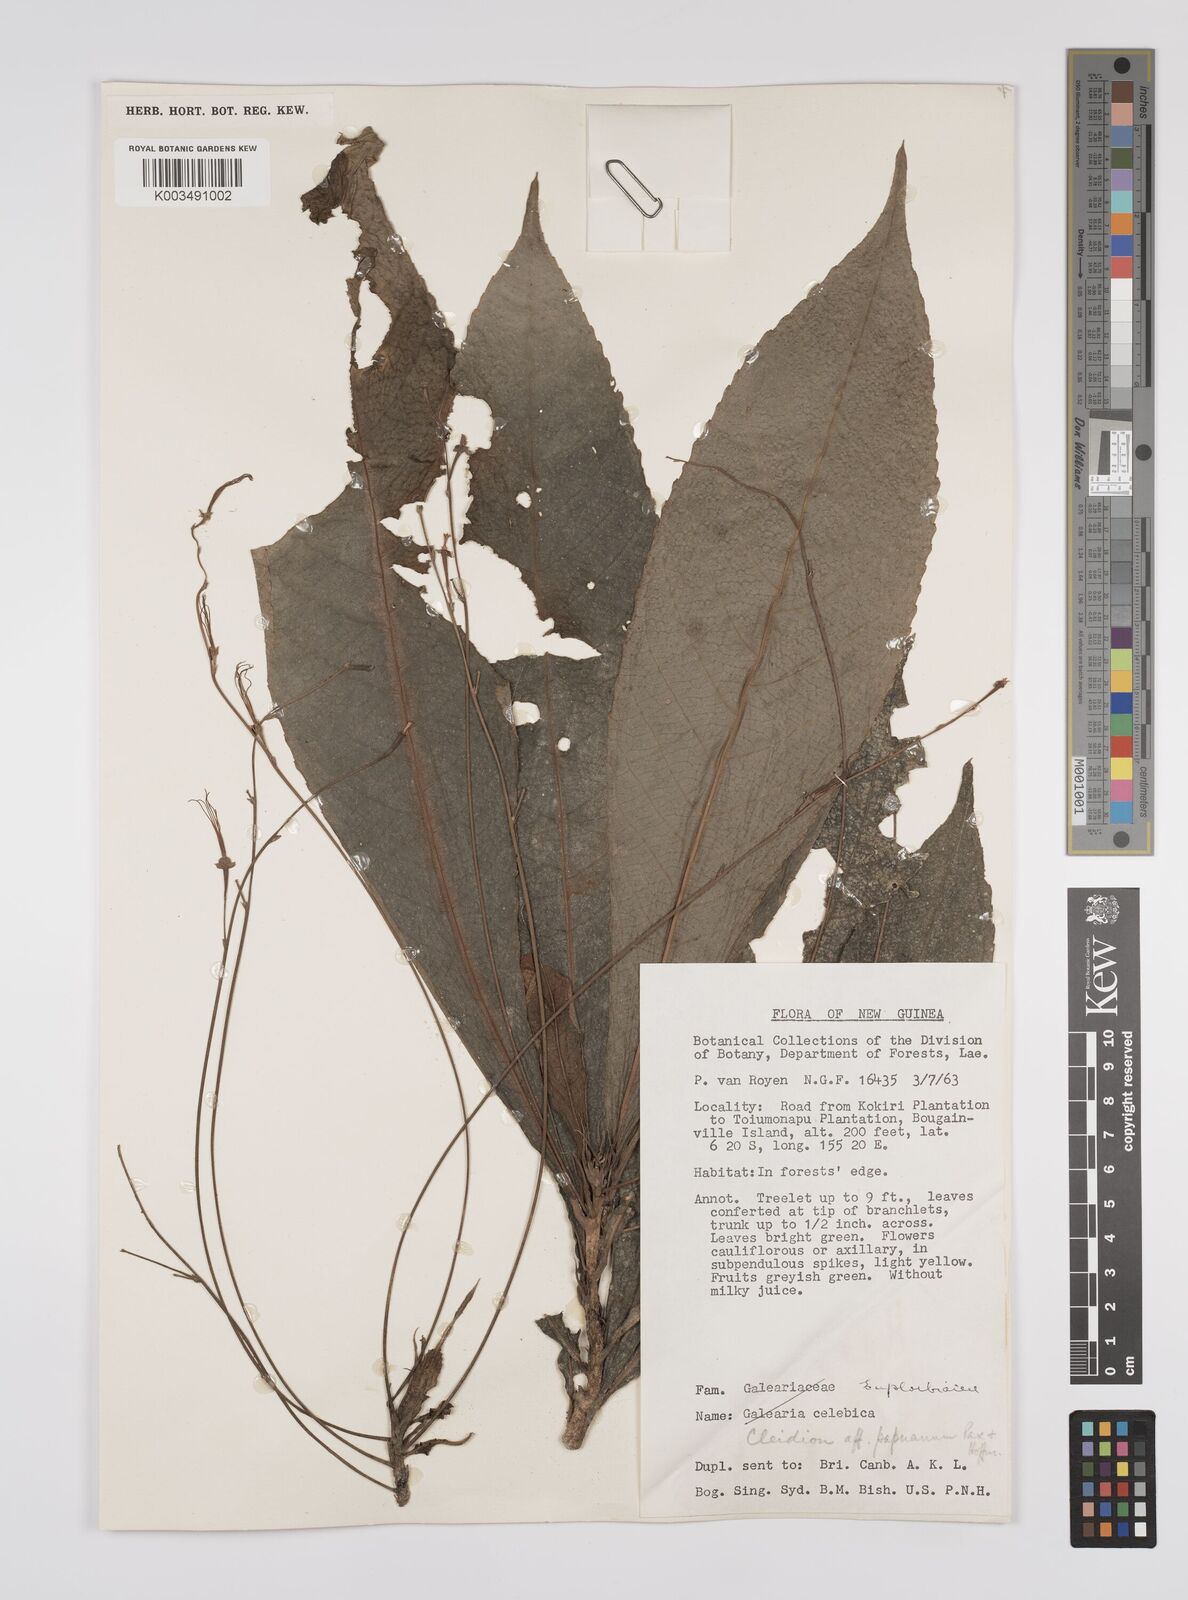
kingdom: Plantae
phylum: Tracheophyta
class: Magnoliopsida
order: Malpighiales
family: Euphorbiaceae
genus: Cleidion
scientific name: Cleidion papuanum
